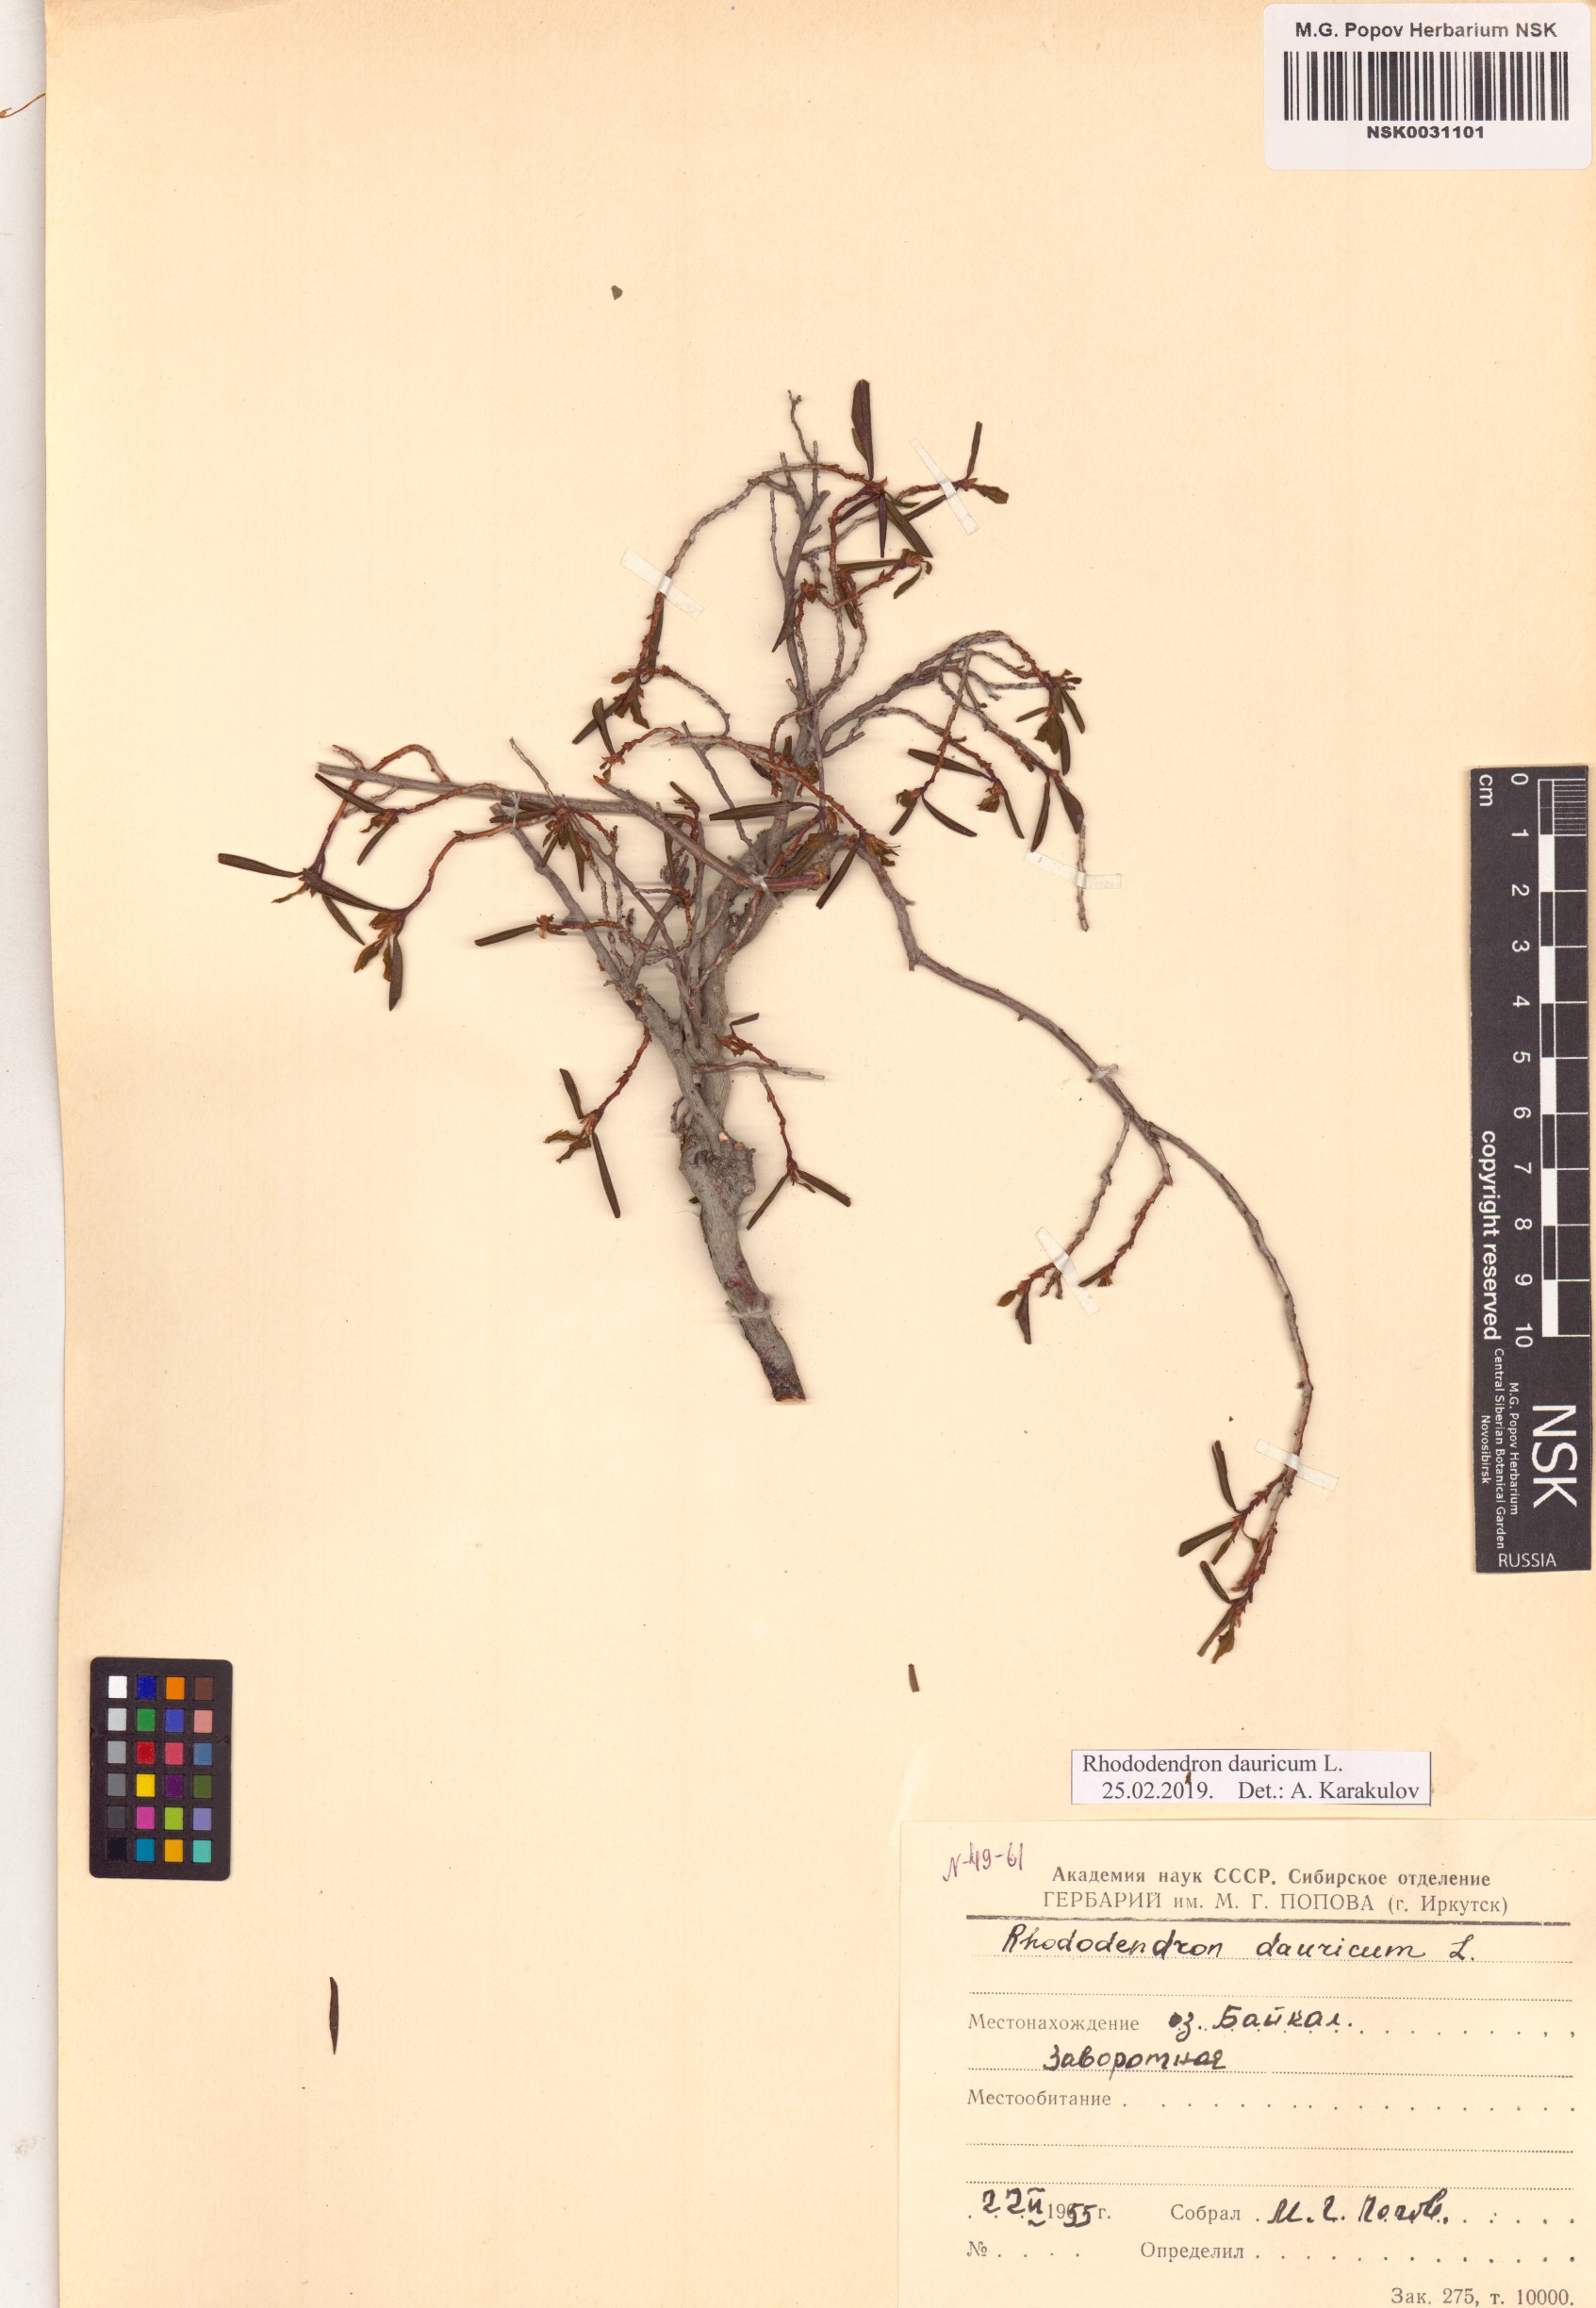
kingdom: Plantae
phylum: Tracheophyta
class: Magnoliopsida
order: Ericales
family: Ericaceae
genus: Rhododendron
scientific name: Rhododendron dauricum
